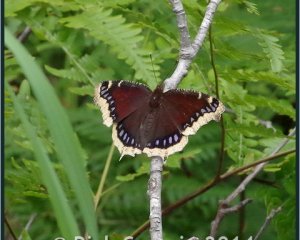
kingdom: Animalia
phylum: Arthropoda
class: Insecta
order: Lepidoptera
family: Nymphalidae
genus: Nymphalis
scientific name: Nymphalis antiopa
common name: Mourning Cloak
